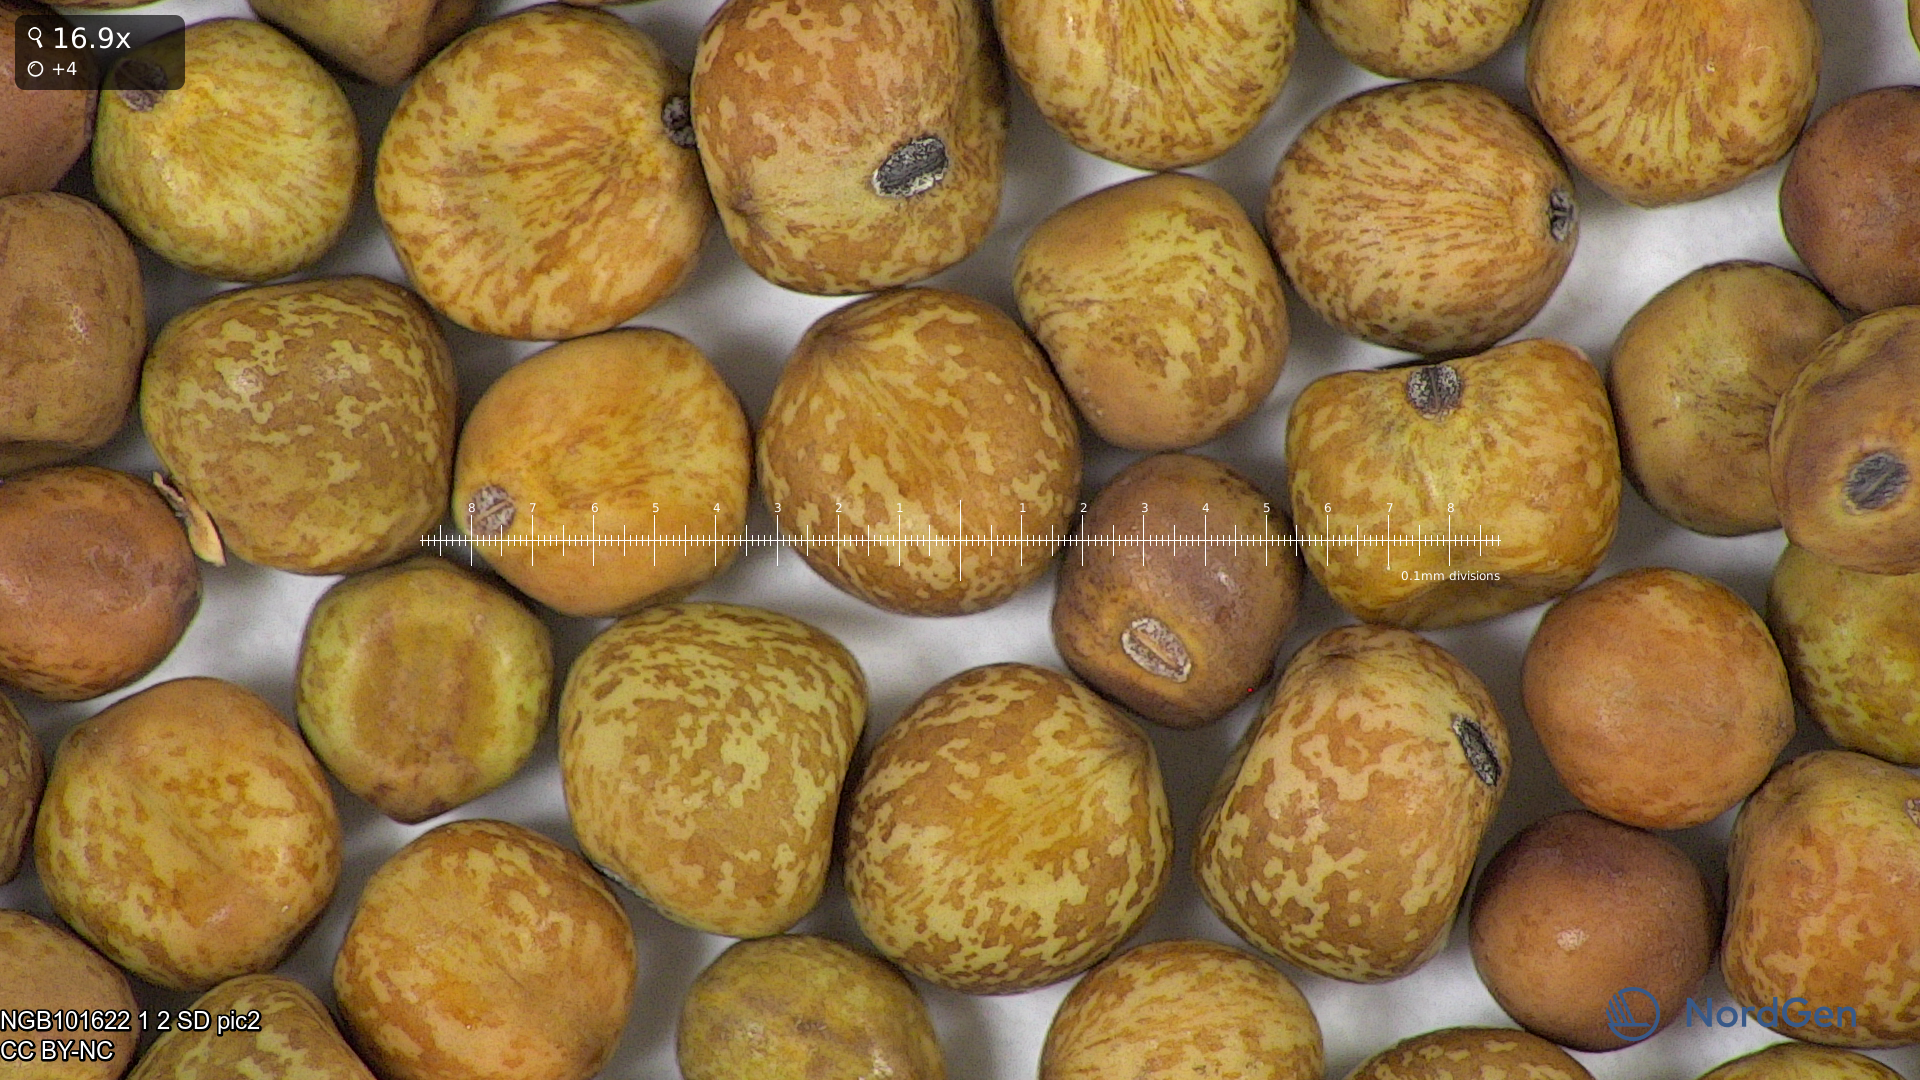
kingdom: Plantae
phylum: Tracheophyta
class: Magnoliopsida
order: Fabales
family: Fabaceae
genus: Lathyrus
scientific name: Lathyrus oleraceus
